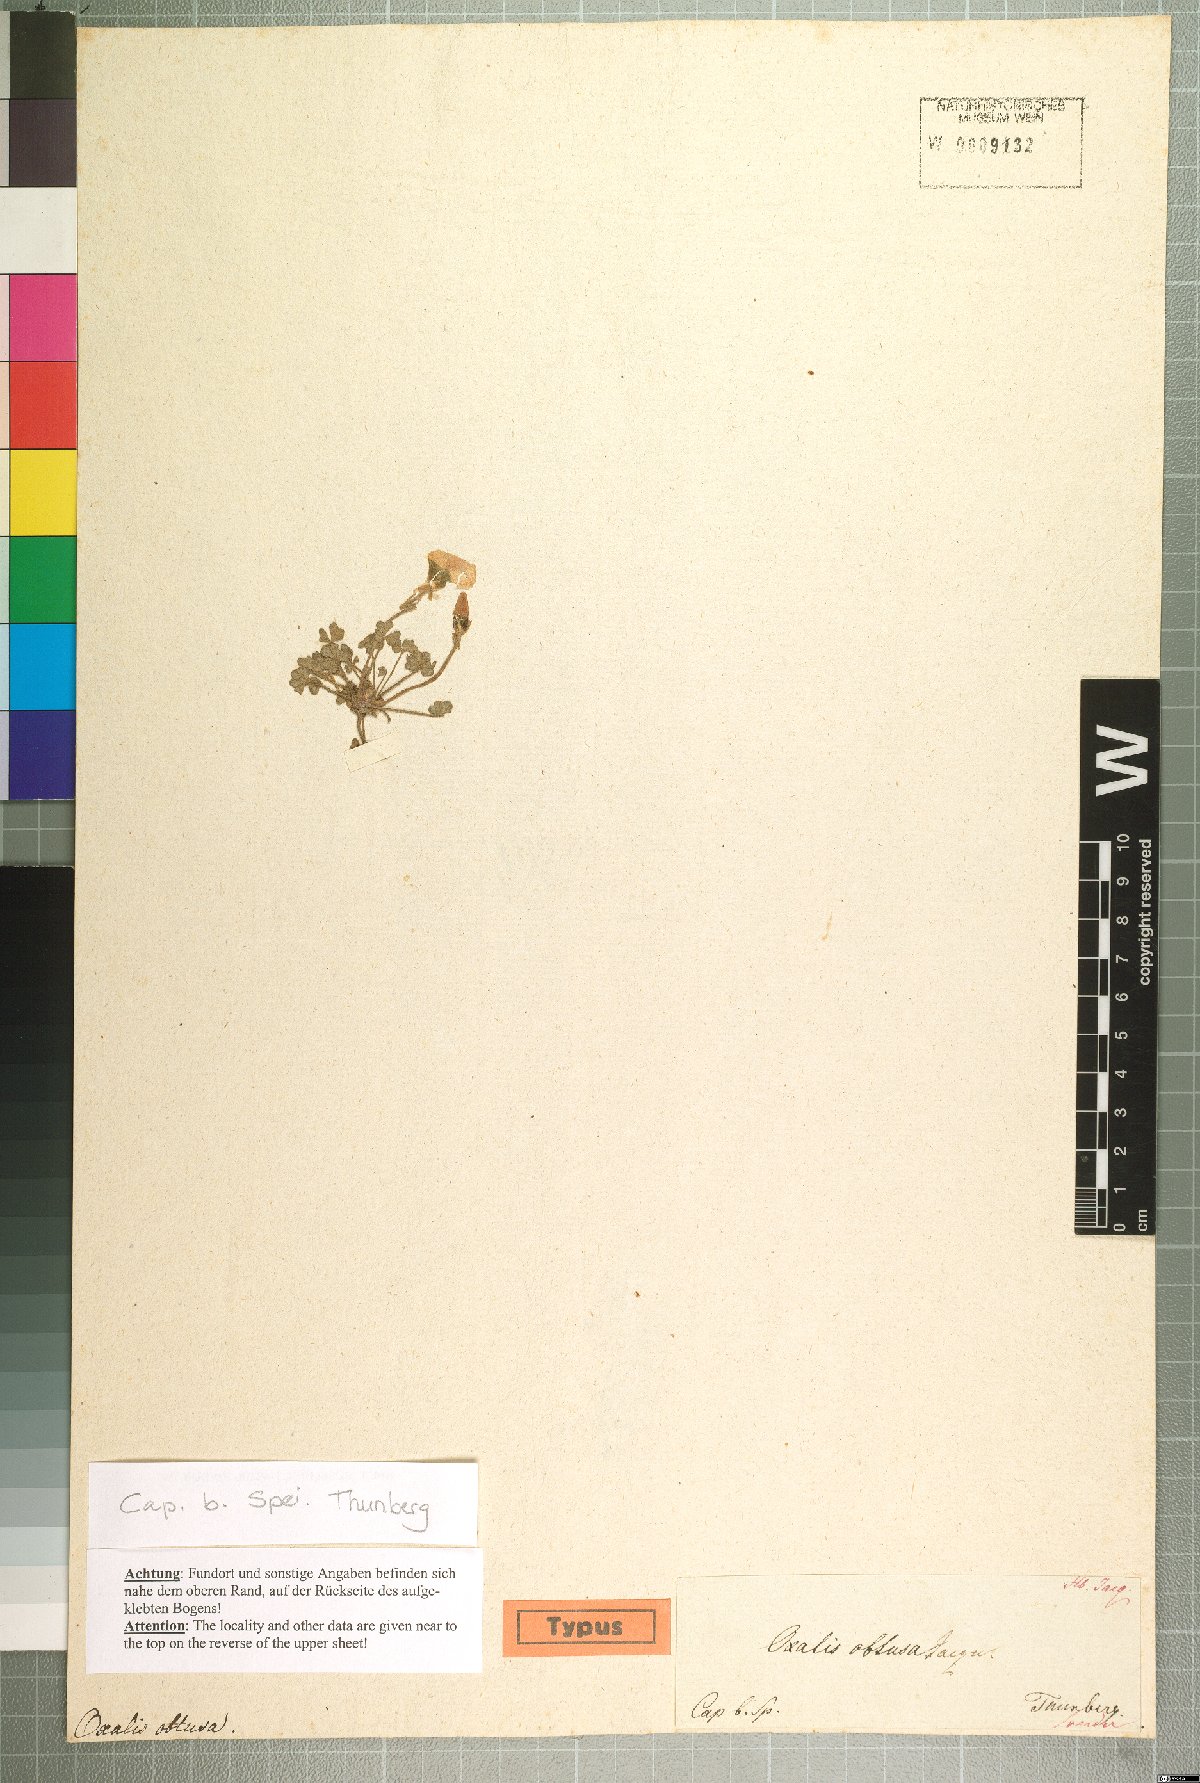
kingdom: Plantae
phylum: Tracheophyta
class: Magnoliopsida
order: Oxalidales
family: Oxalidaceae
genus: Oxalis
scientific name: Oxalis obtusa
